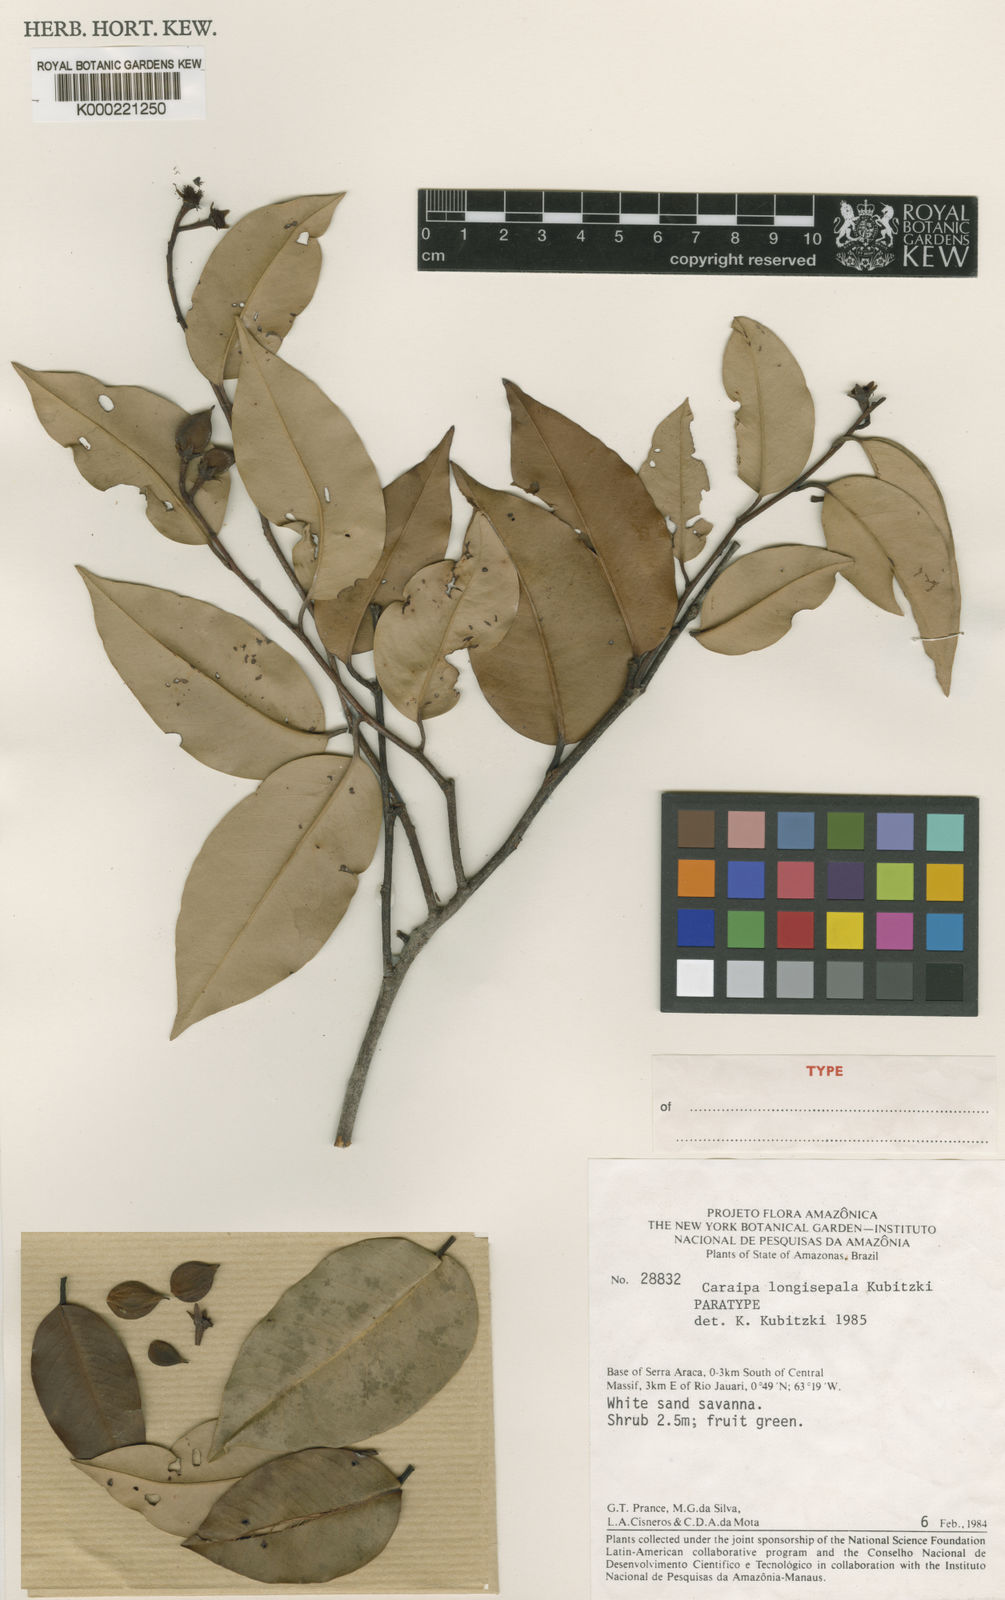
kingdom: Plantae
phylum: Tracheophyta
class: Magnoliopsida
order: Malpighiales
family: Calophyllaceae
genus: Caraipa
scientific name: Caraipa longisepala
